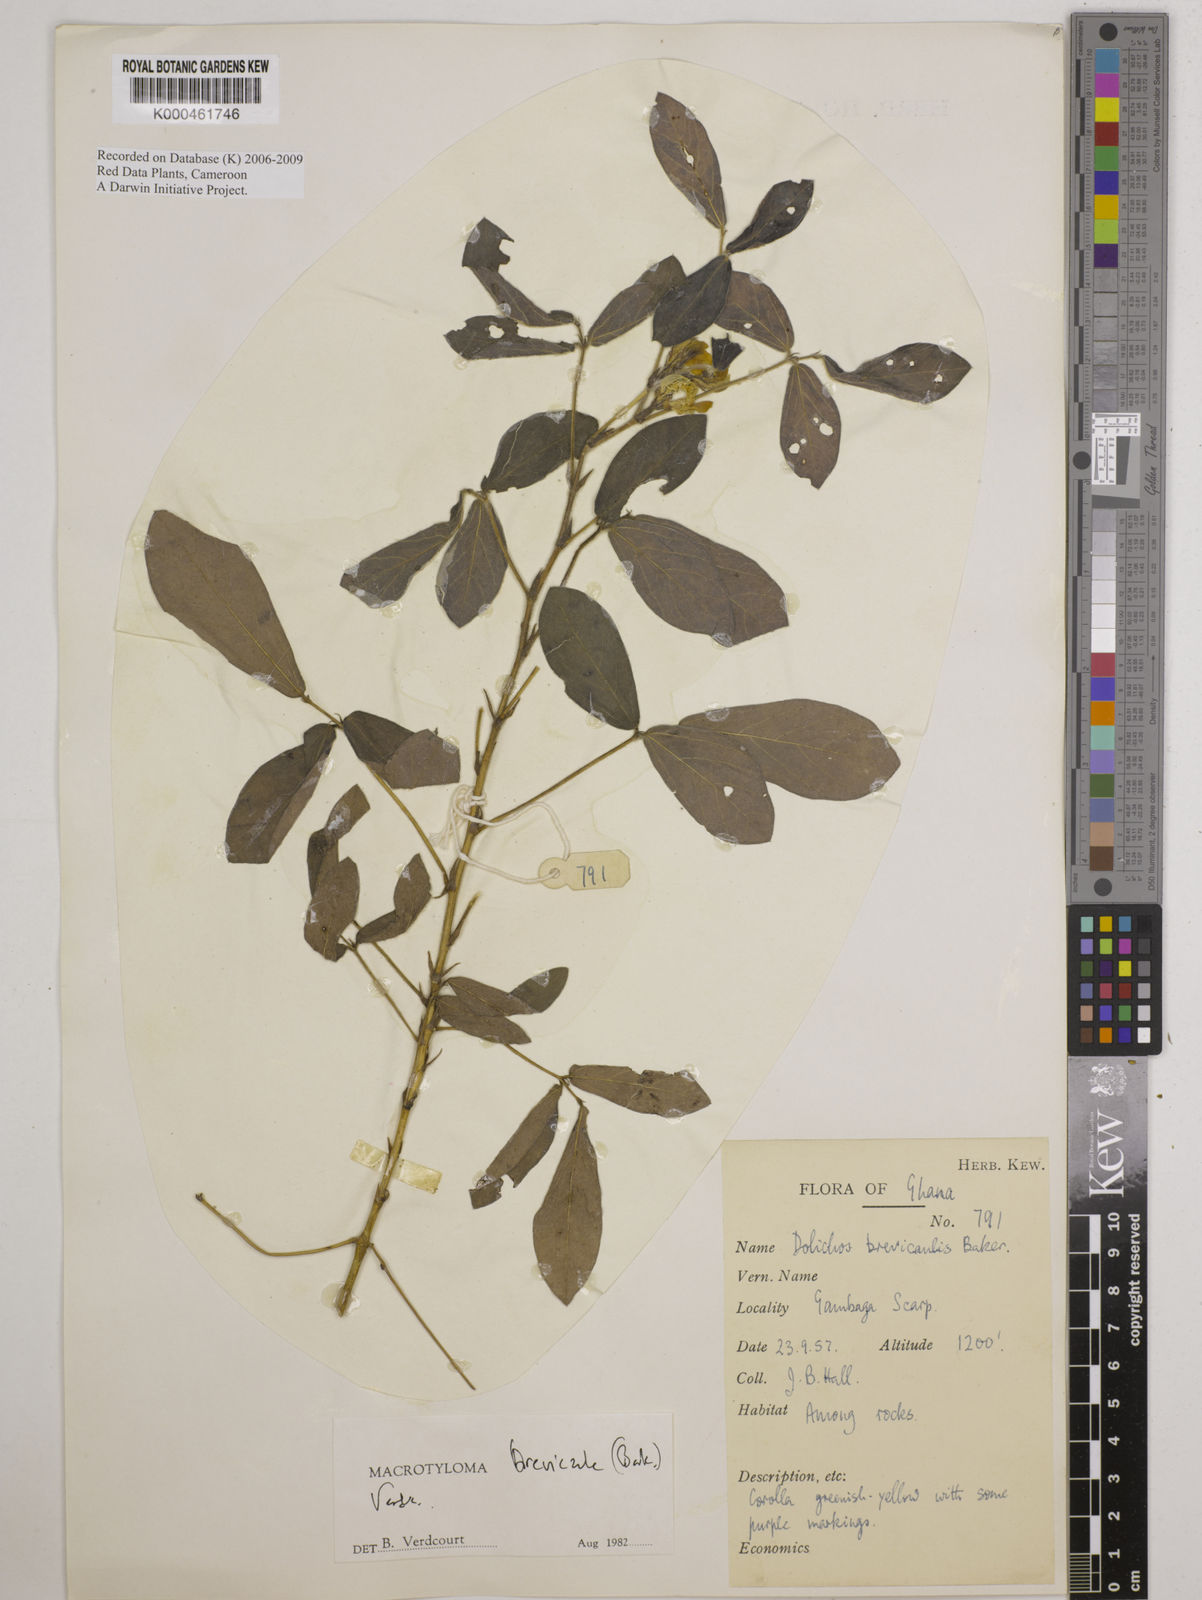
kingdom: Plantae
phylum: Tracheophyta
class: Magnoliopsida
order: Fabales
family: Fabaceae
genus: Macrotyloma
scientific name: Macrotyloma brevicaule
